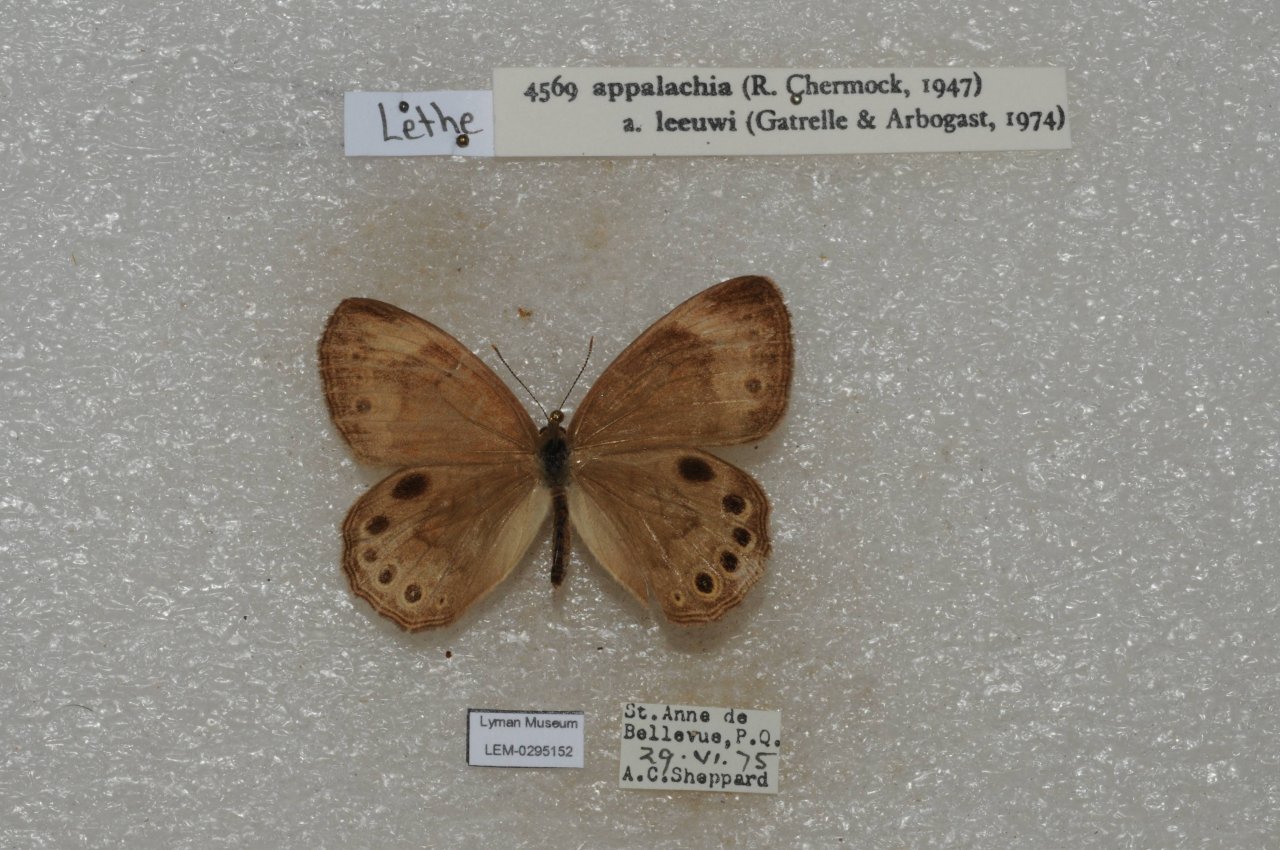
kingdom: Animalia
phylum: Arthropoda
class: Insecta
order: Lepidoptera
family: Nymphalidae
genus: Lethe
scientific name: Lethe eurydice
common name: Appalachian Eyed Brown
